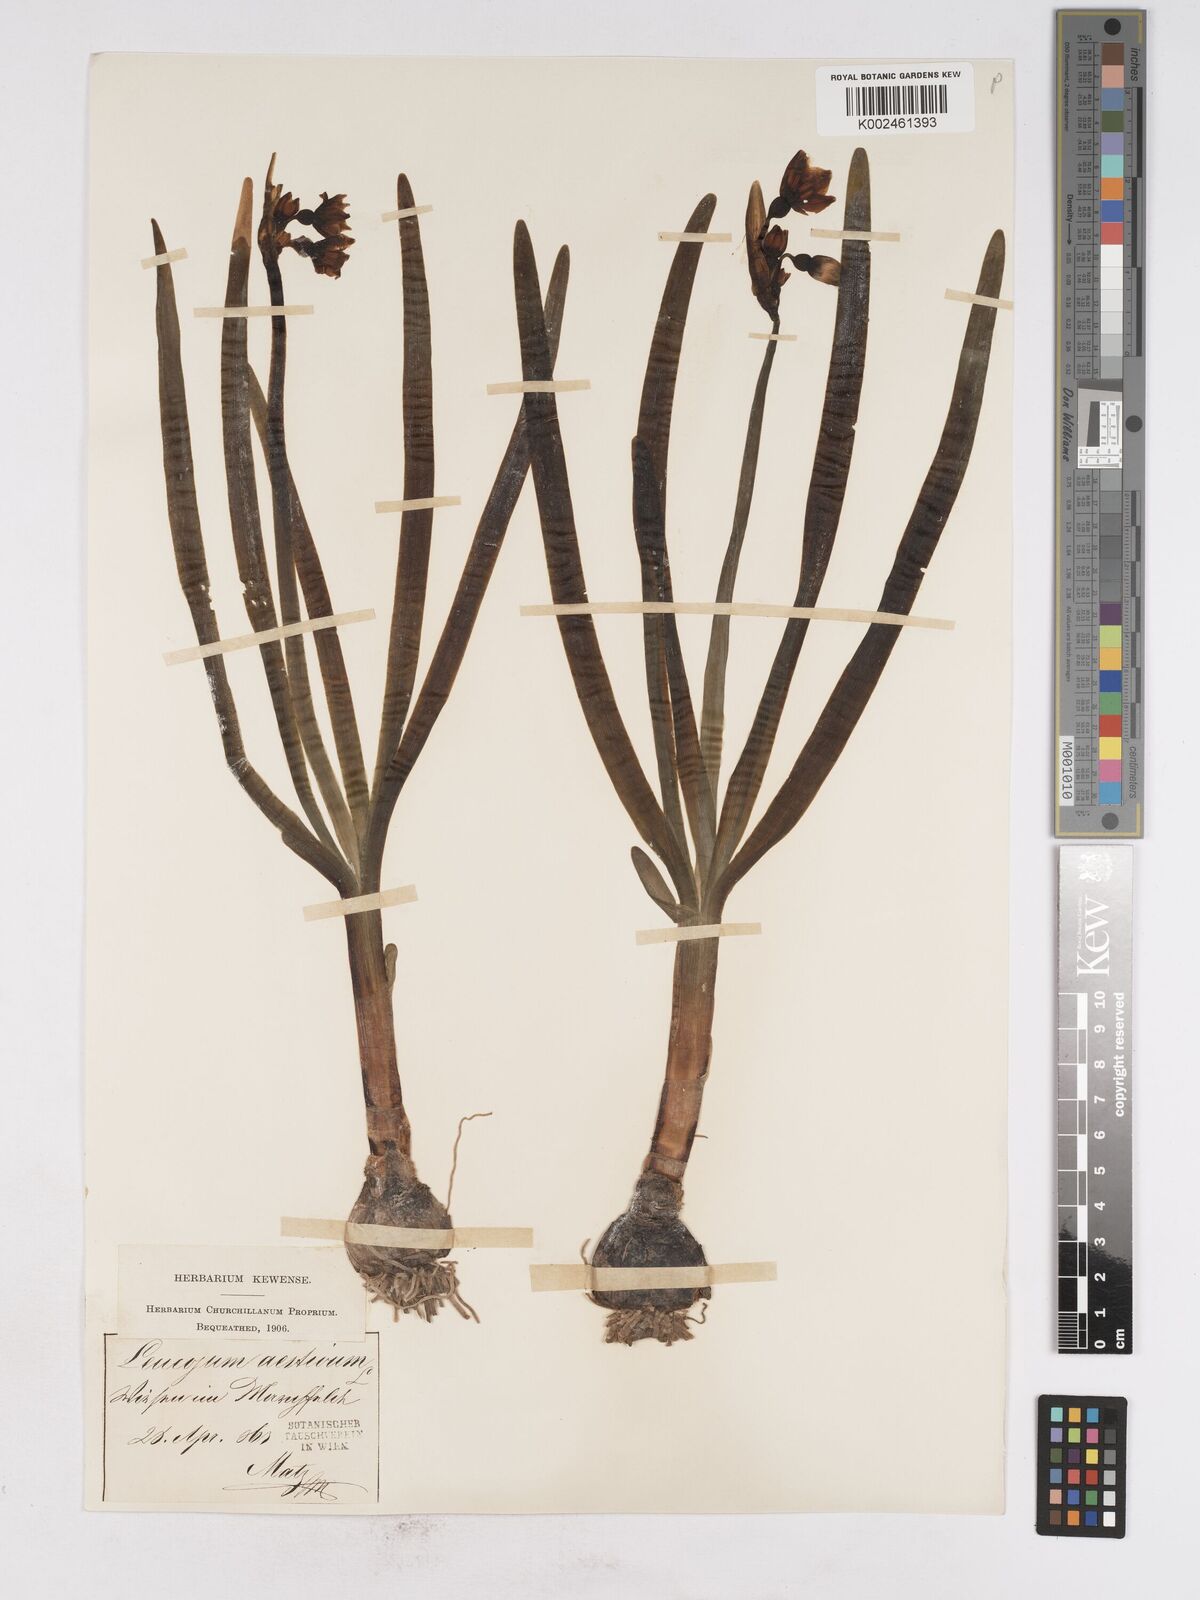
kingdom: Plantae
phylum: Tracheophyta
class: Liliopsida
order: Asparagales
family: Amaryllidaceae
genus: Leucojum
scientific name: Leucojum aestivum
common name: Summer snowflake
